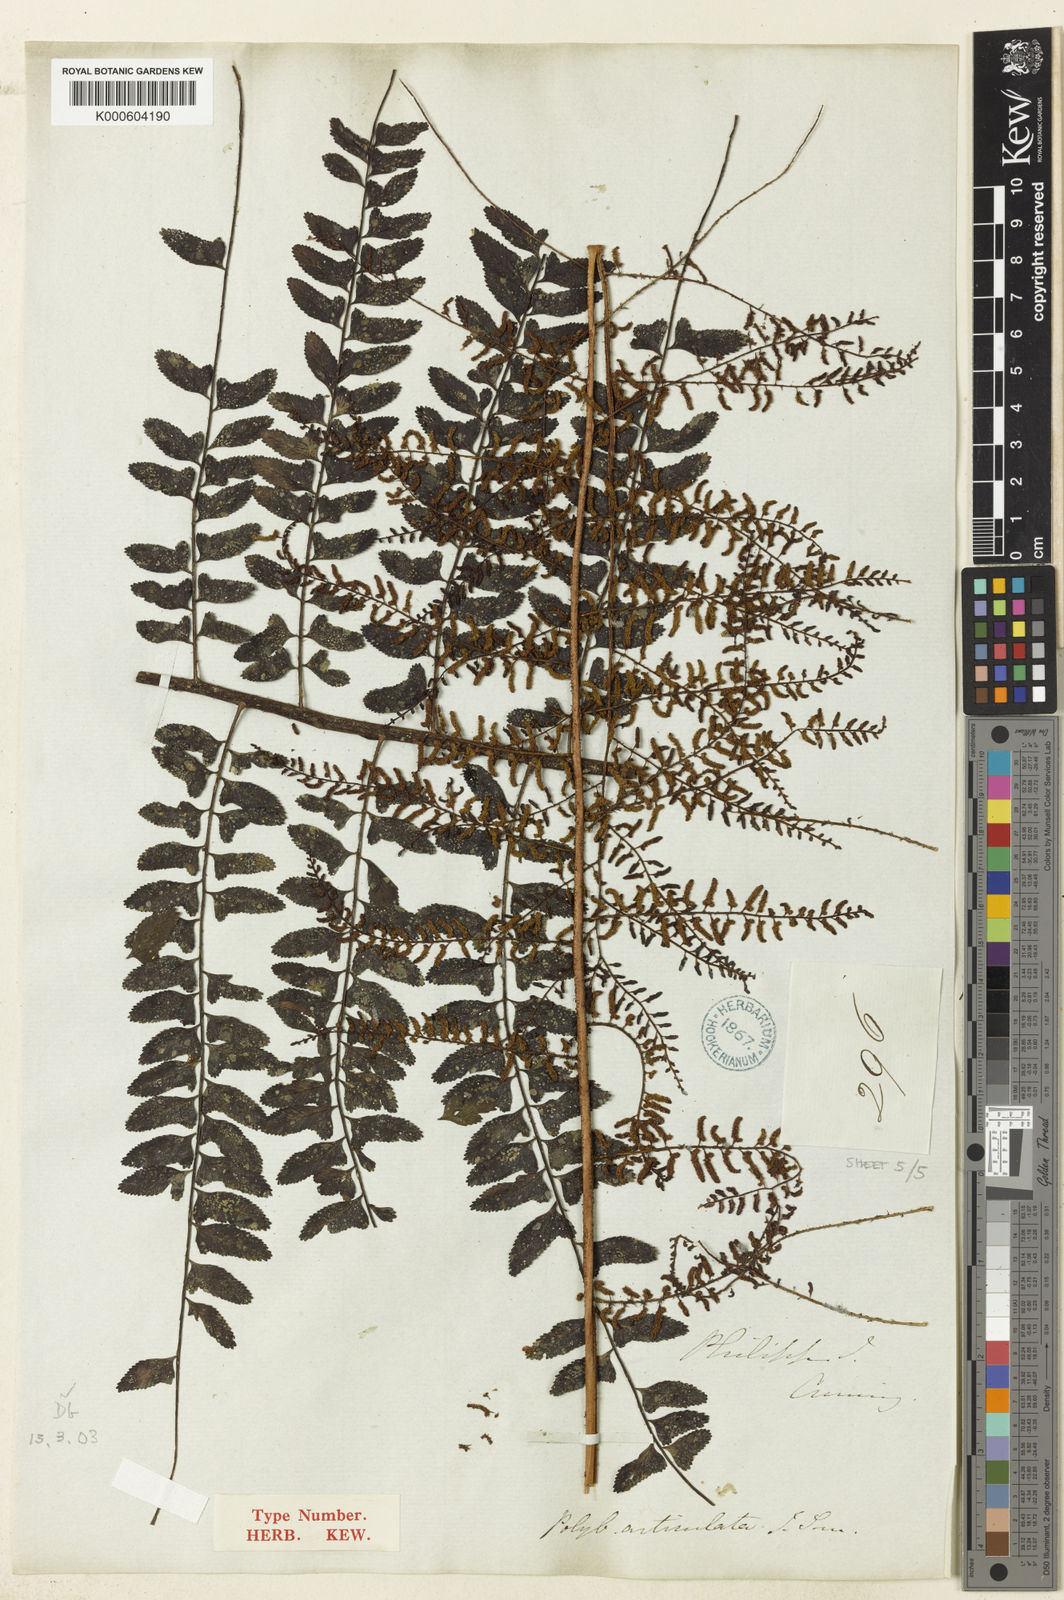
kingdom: Plantae
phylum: Tracheophyta
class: Polypodiopsida
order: Polypodiales
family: Dryopteridaceae
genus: Arthrobotrya
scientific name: Arthrobotrya articulata
